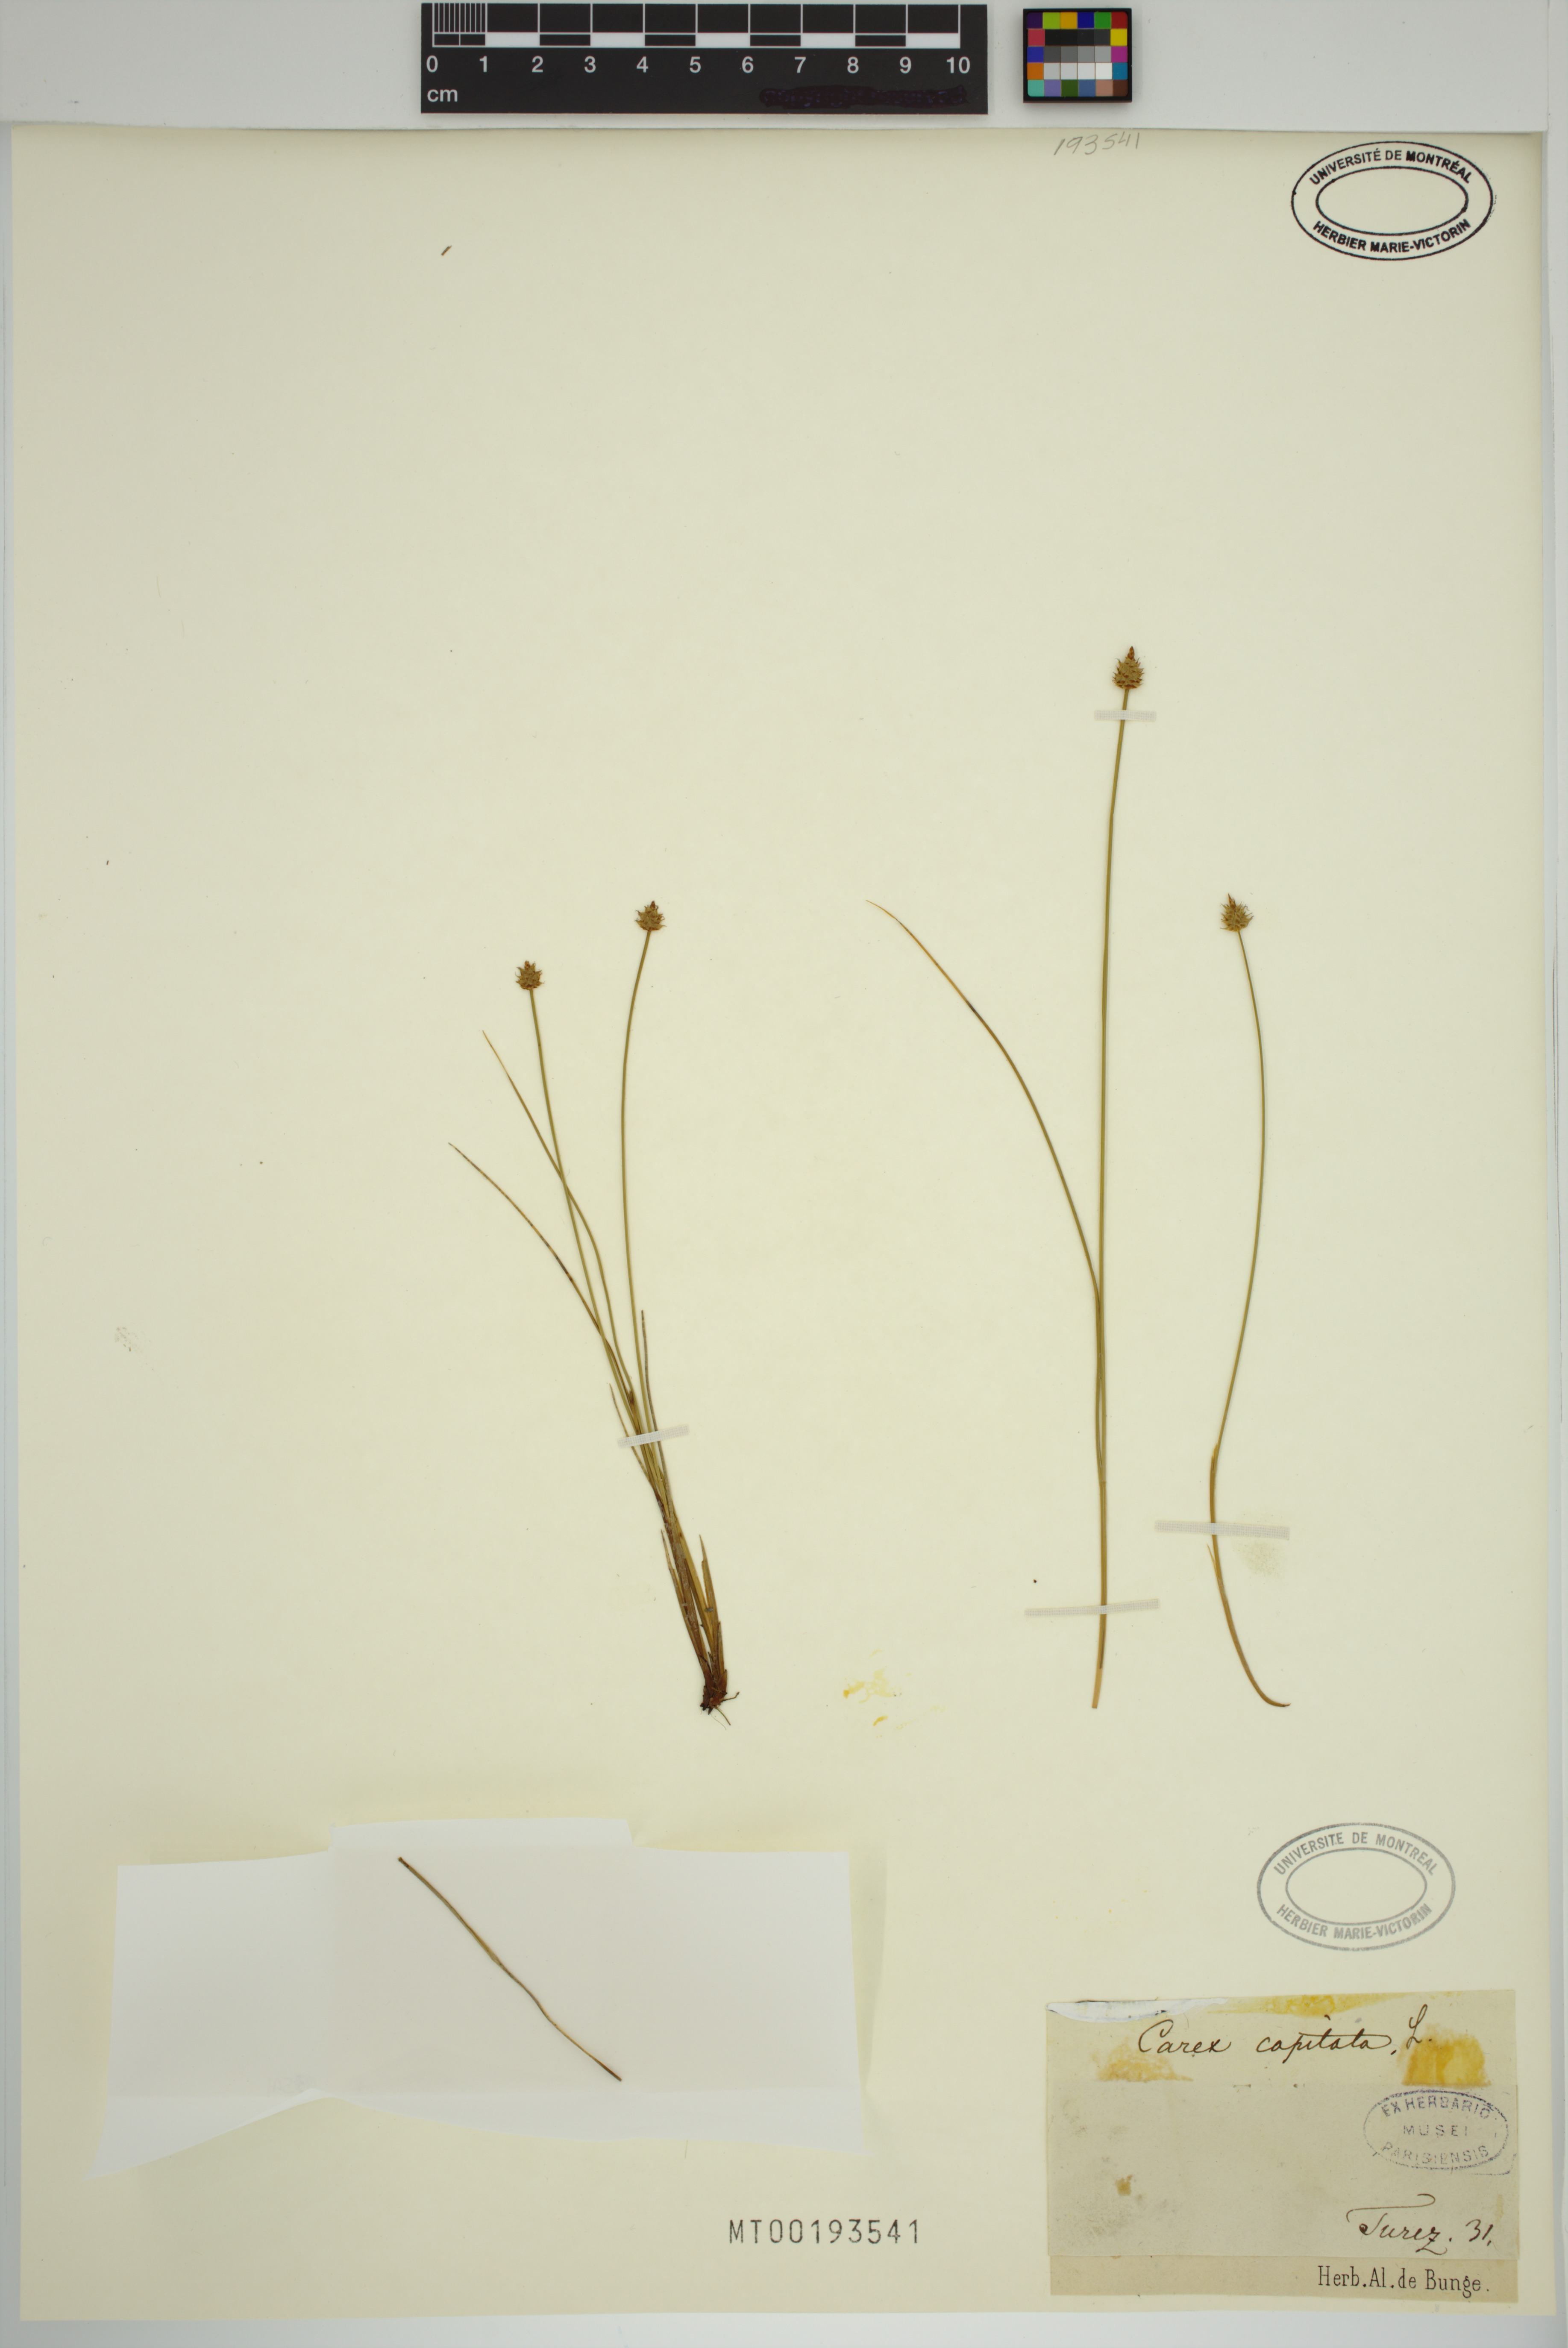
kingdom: Plantae
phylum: Tracheophyta
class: Liliopsida
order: Poales
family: Cyperaceae
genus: Carex
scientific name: Carex capitata
